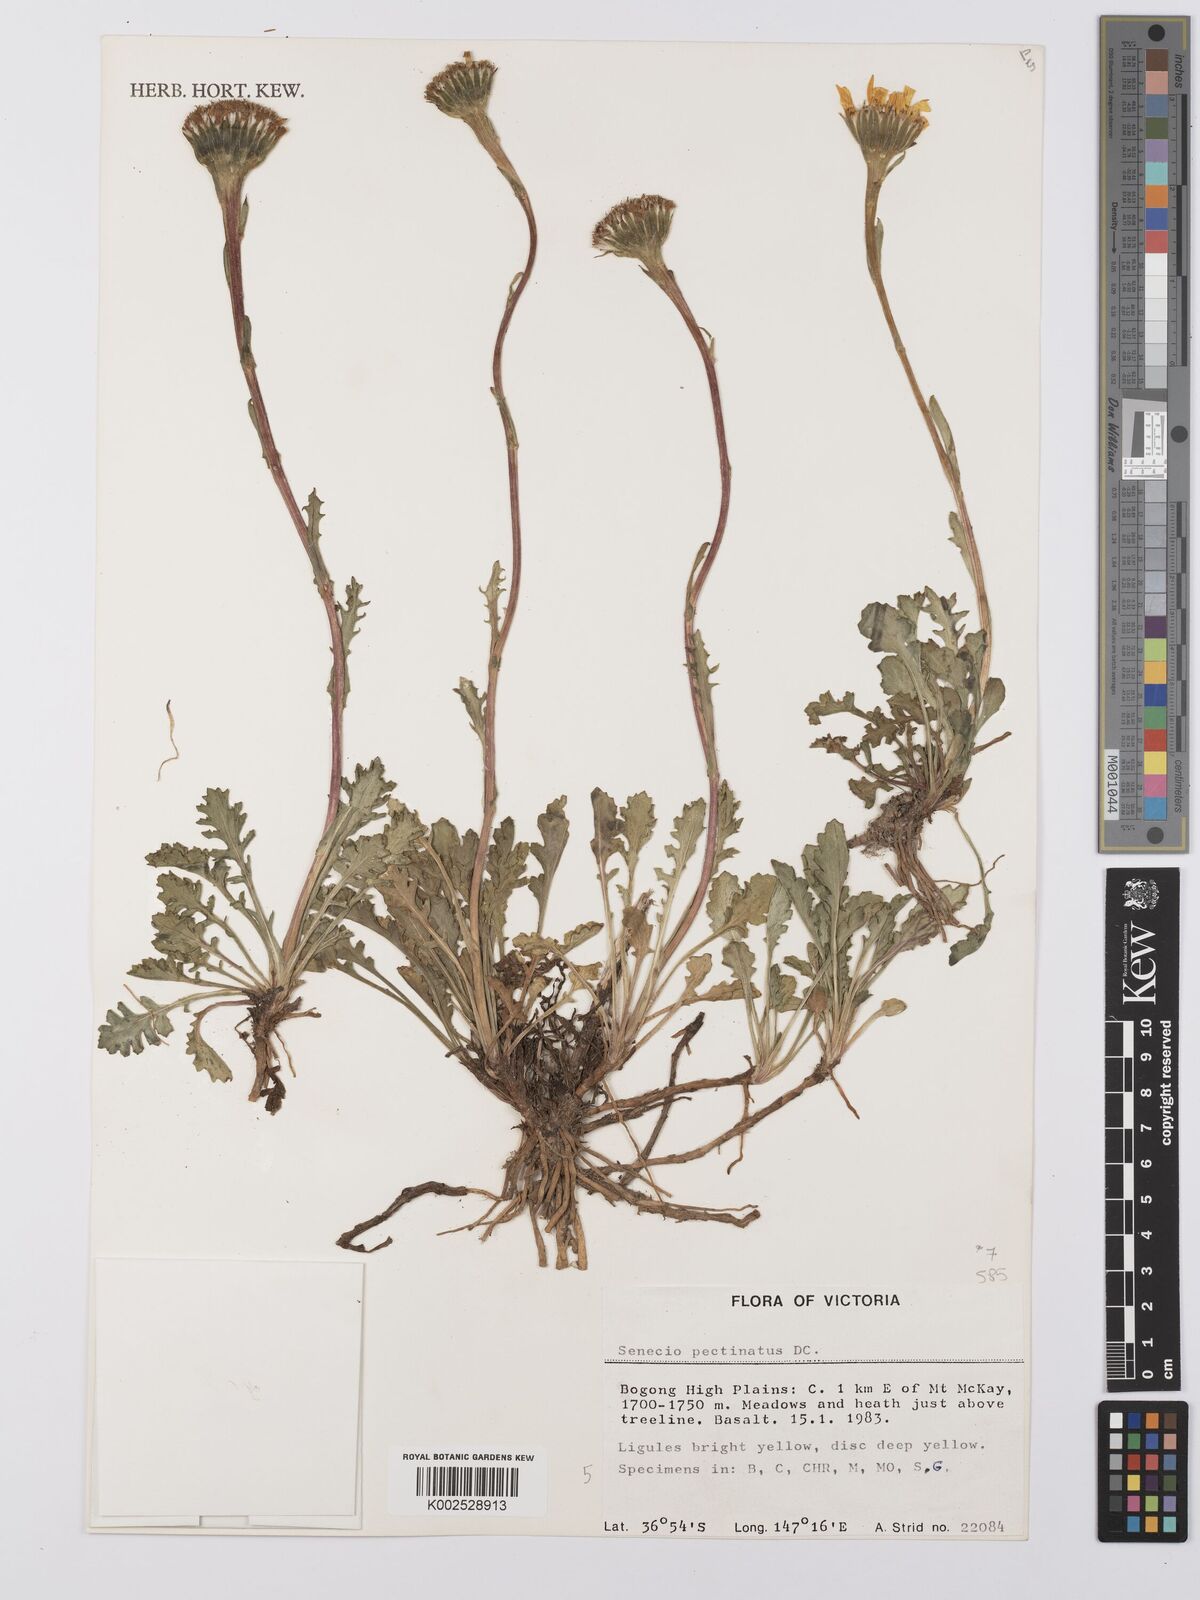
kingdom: Plantae
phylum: Tracheophyta
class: Magnoliopsida
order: Asterales
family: Asteraceae
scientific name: Asteraceae
